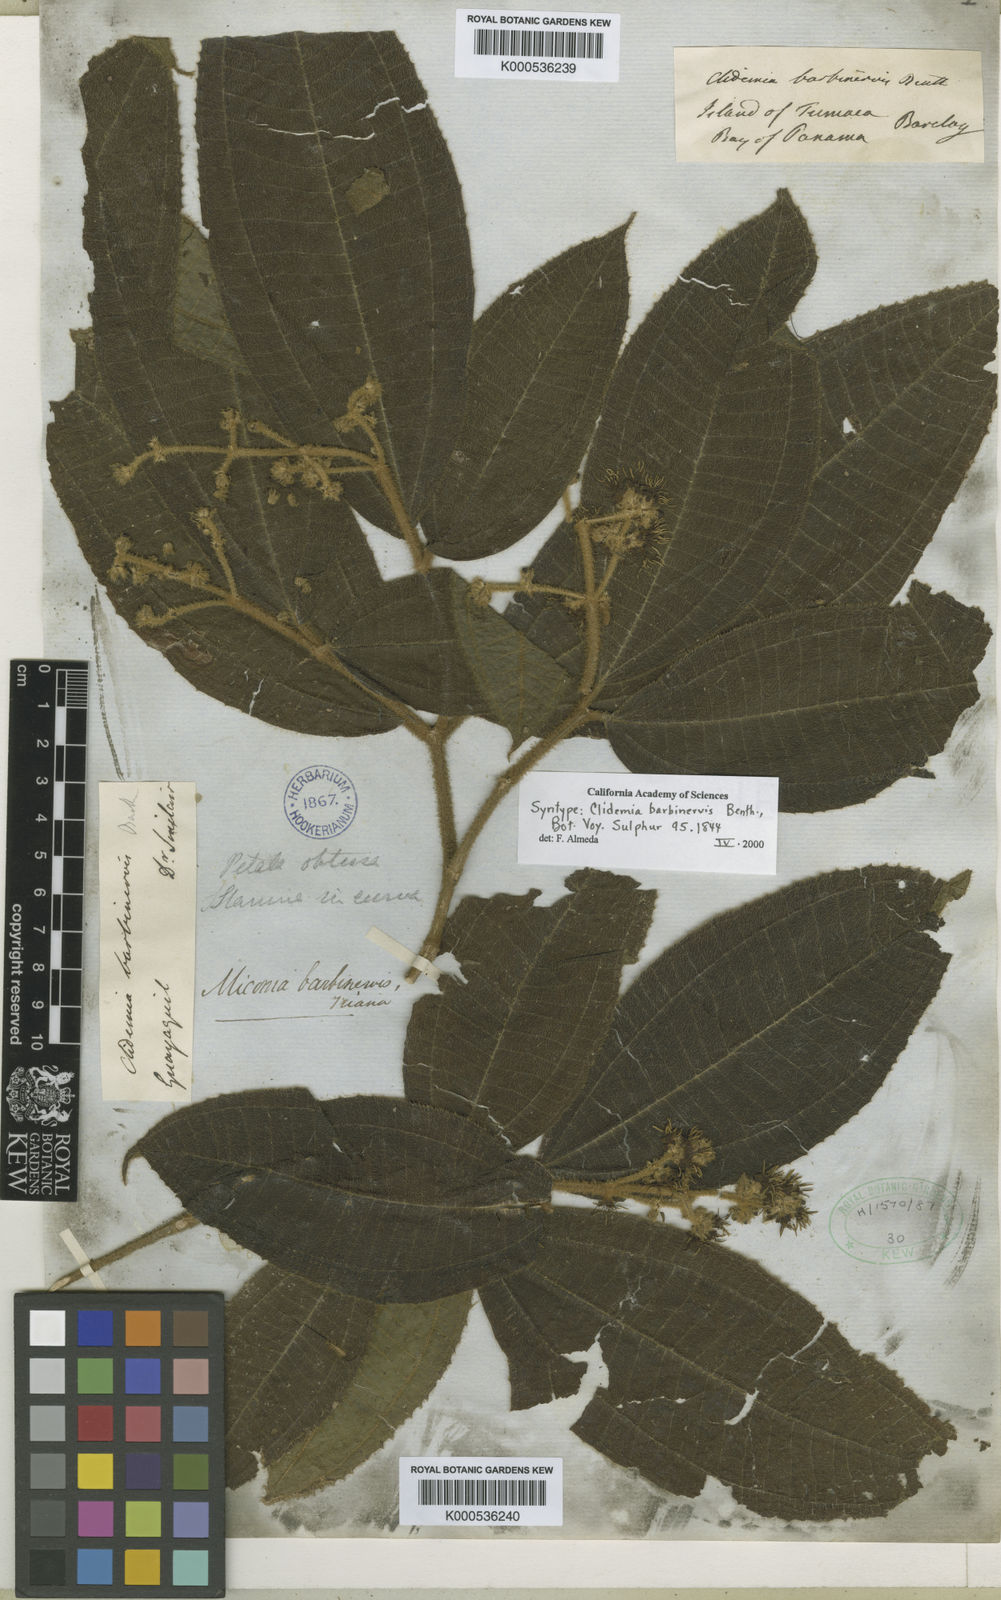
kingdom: Plantae
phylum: Tracheophyta
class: Magnoliopsida
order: Myrtales
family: Melastomataceae
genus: Miconia
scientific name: Miconia barbinervis
